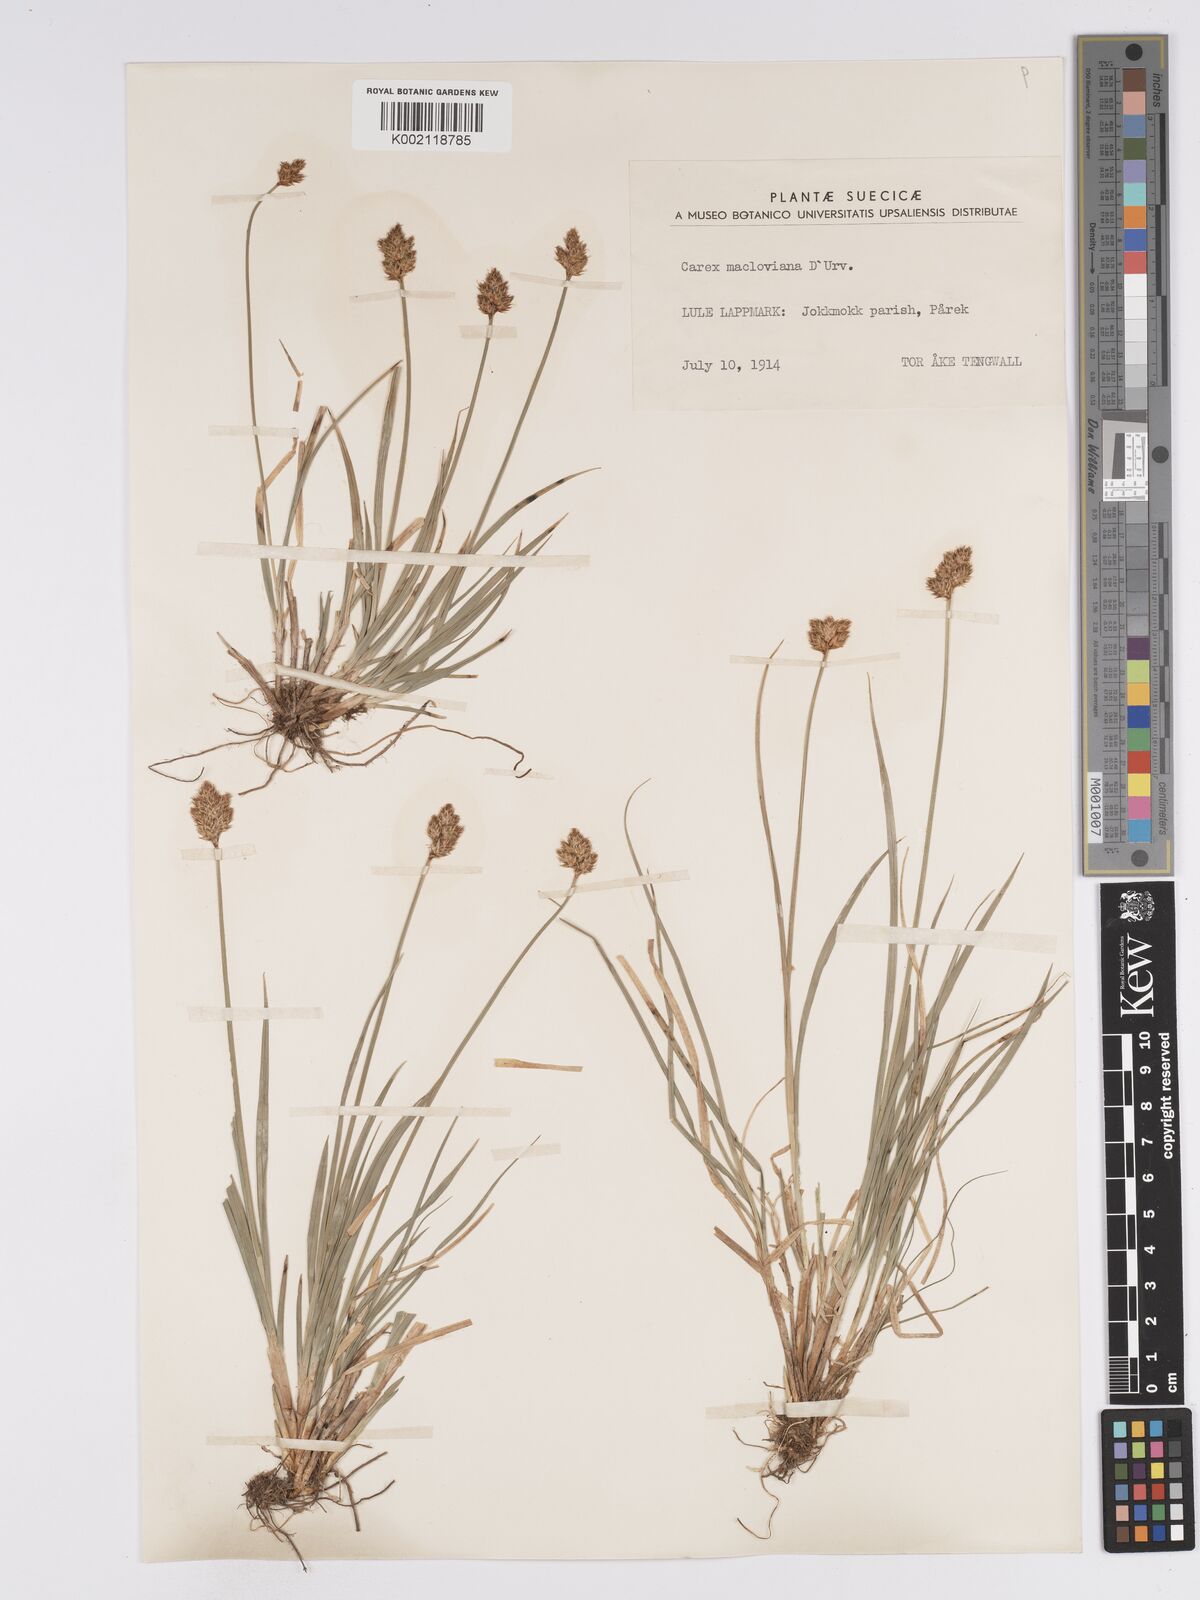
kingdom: Plantae
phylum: Tracheophyta
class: Liliopsida
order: Poales
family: Cyperaceae
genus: Carex
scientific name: Carex macloviana
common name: Falkland island sedge
